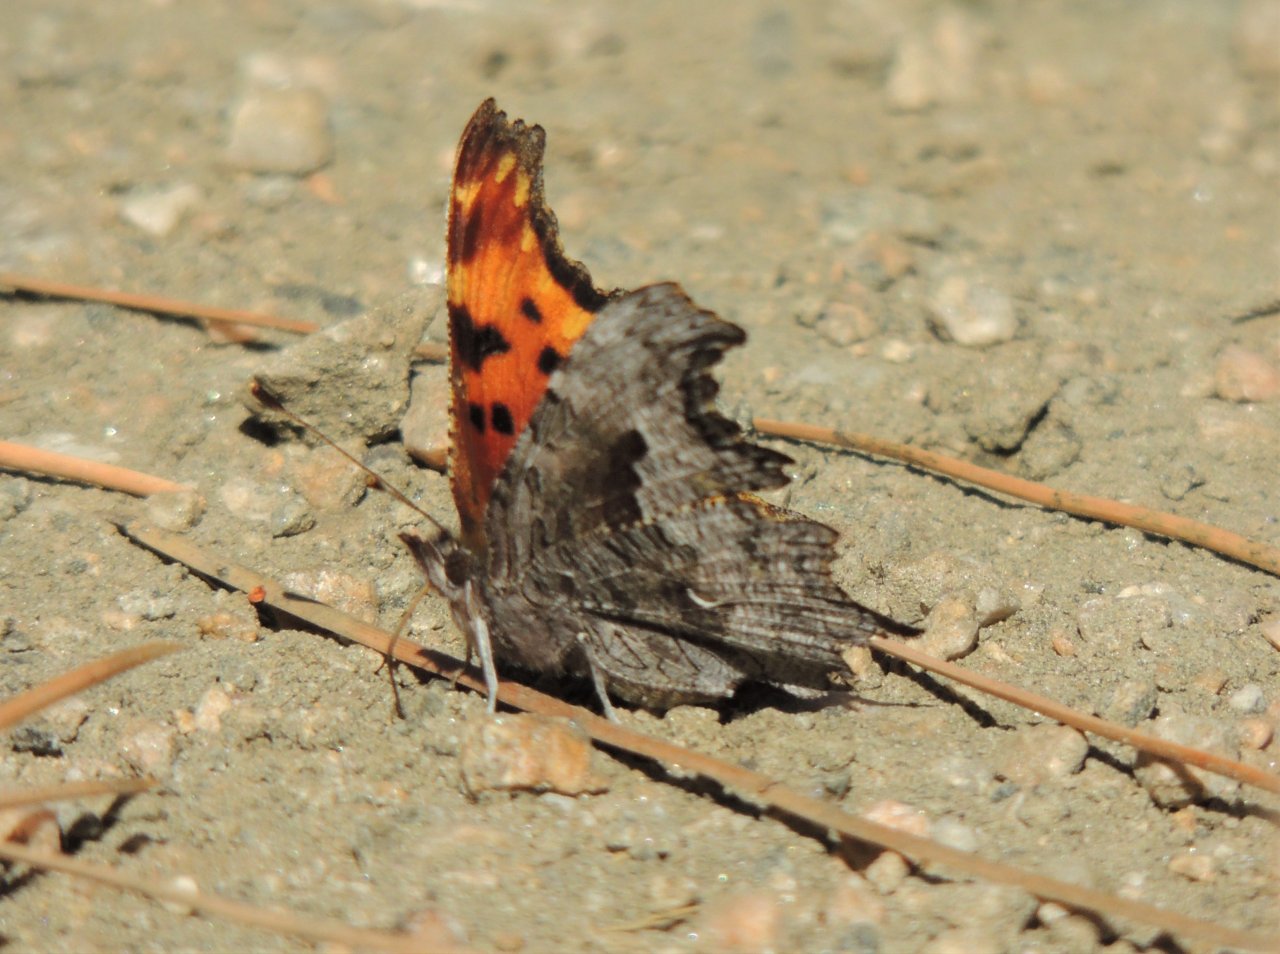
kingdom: Animalia
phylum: Arthropoda
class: Insecta
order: Lepidoptera
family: Nymphalidae
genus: Polygonia
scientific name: Polygonia gracilis
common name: Hoary Comma
